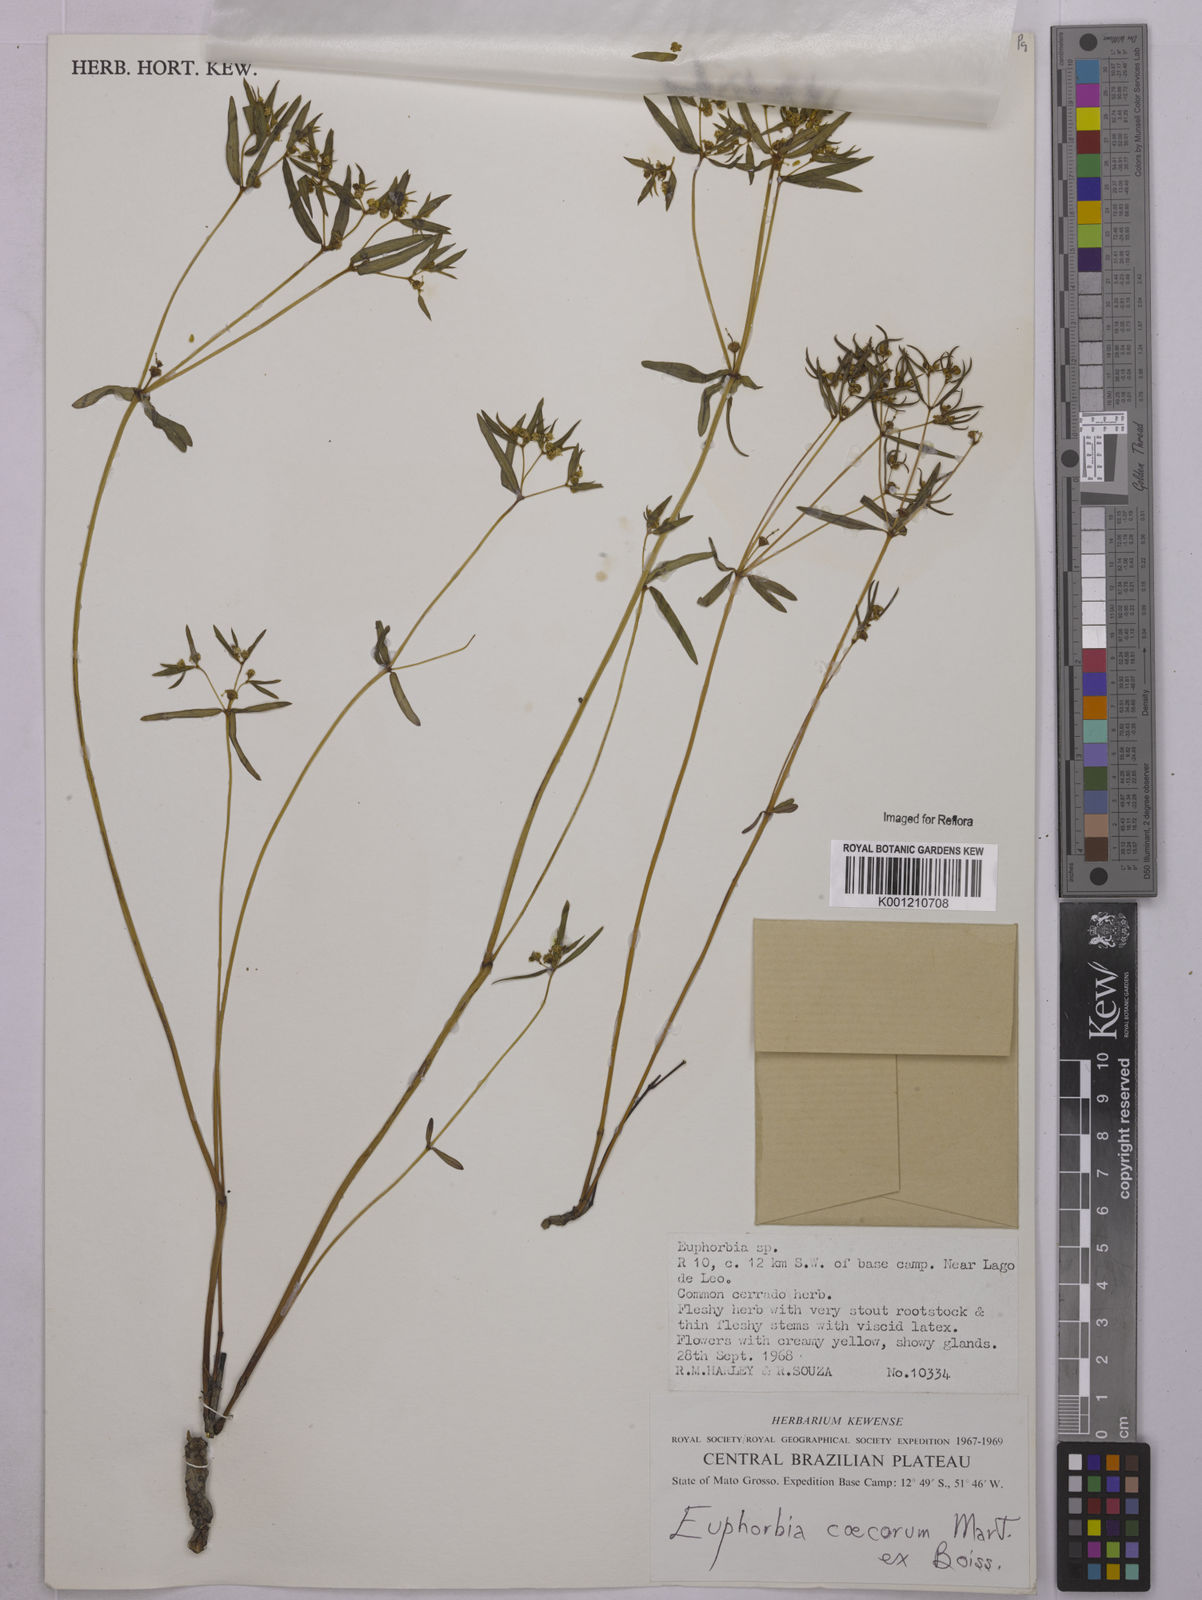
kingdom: Plantae
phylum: Tracheophyta
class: Magnoliopsida
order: Malpighiales
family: Euphorbiaceae
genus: Euphorbia
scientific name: Euphorbia potentilloides
